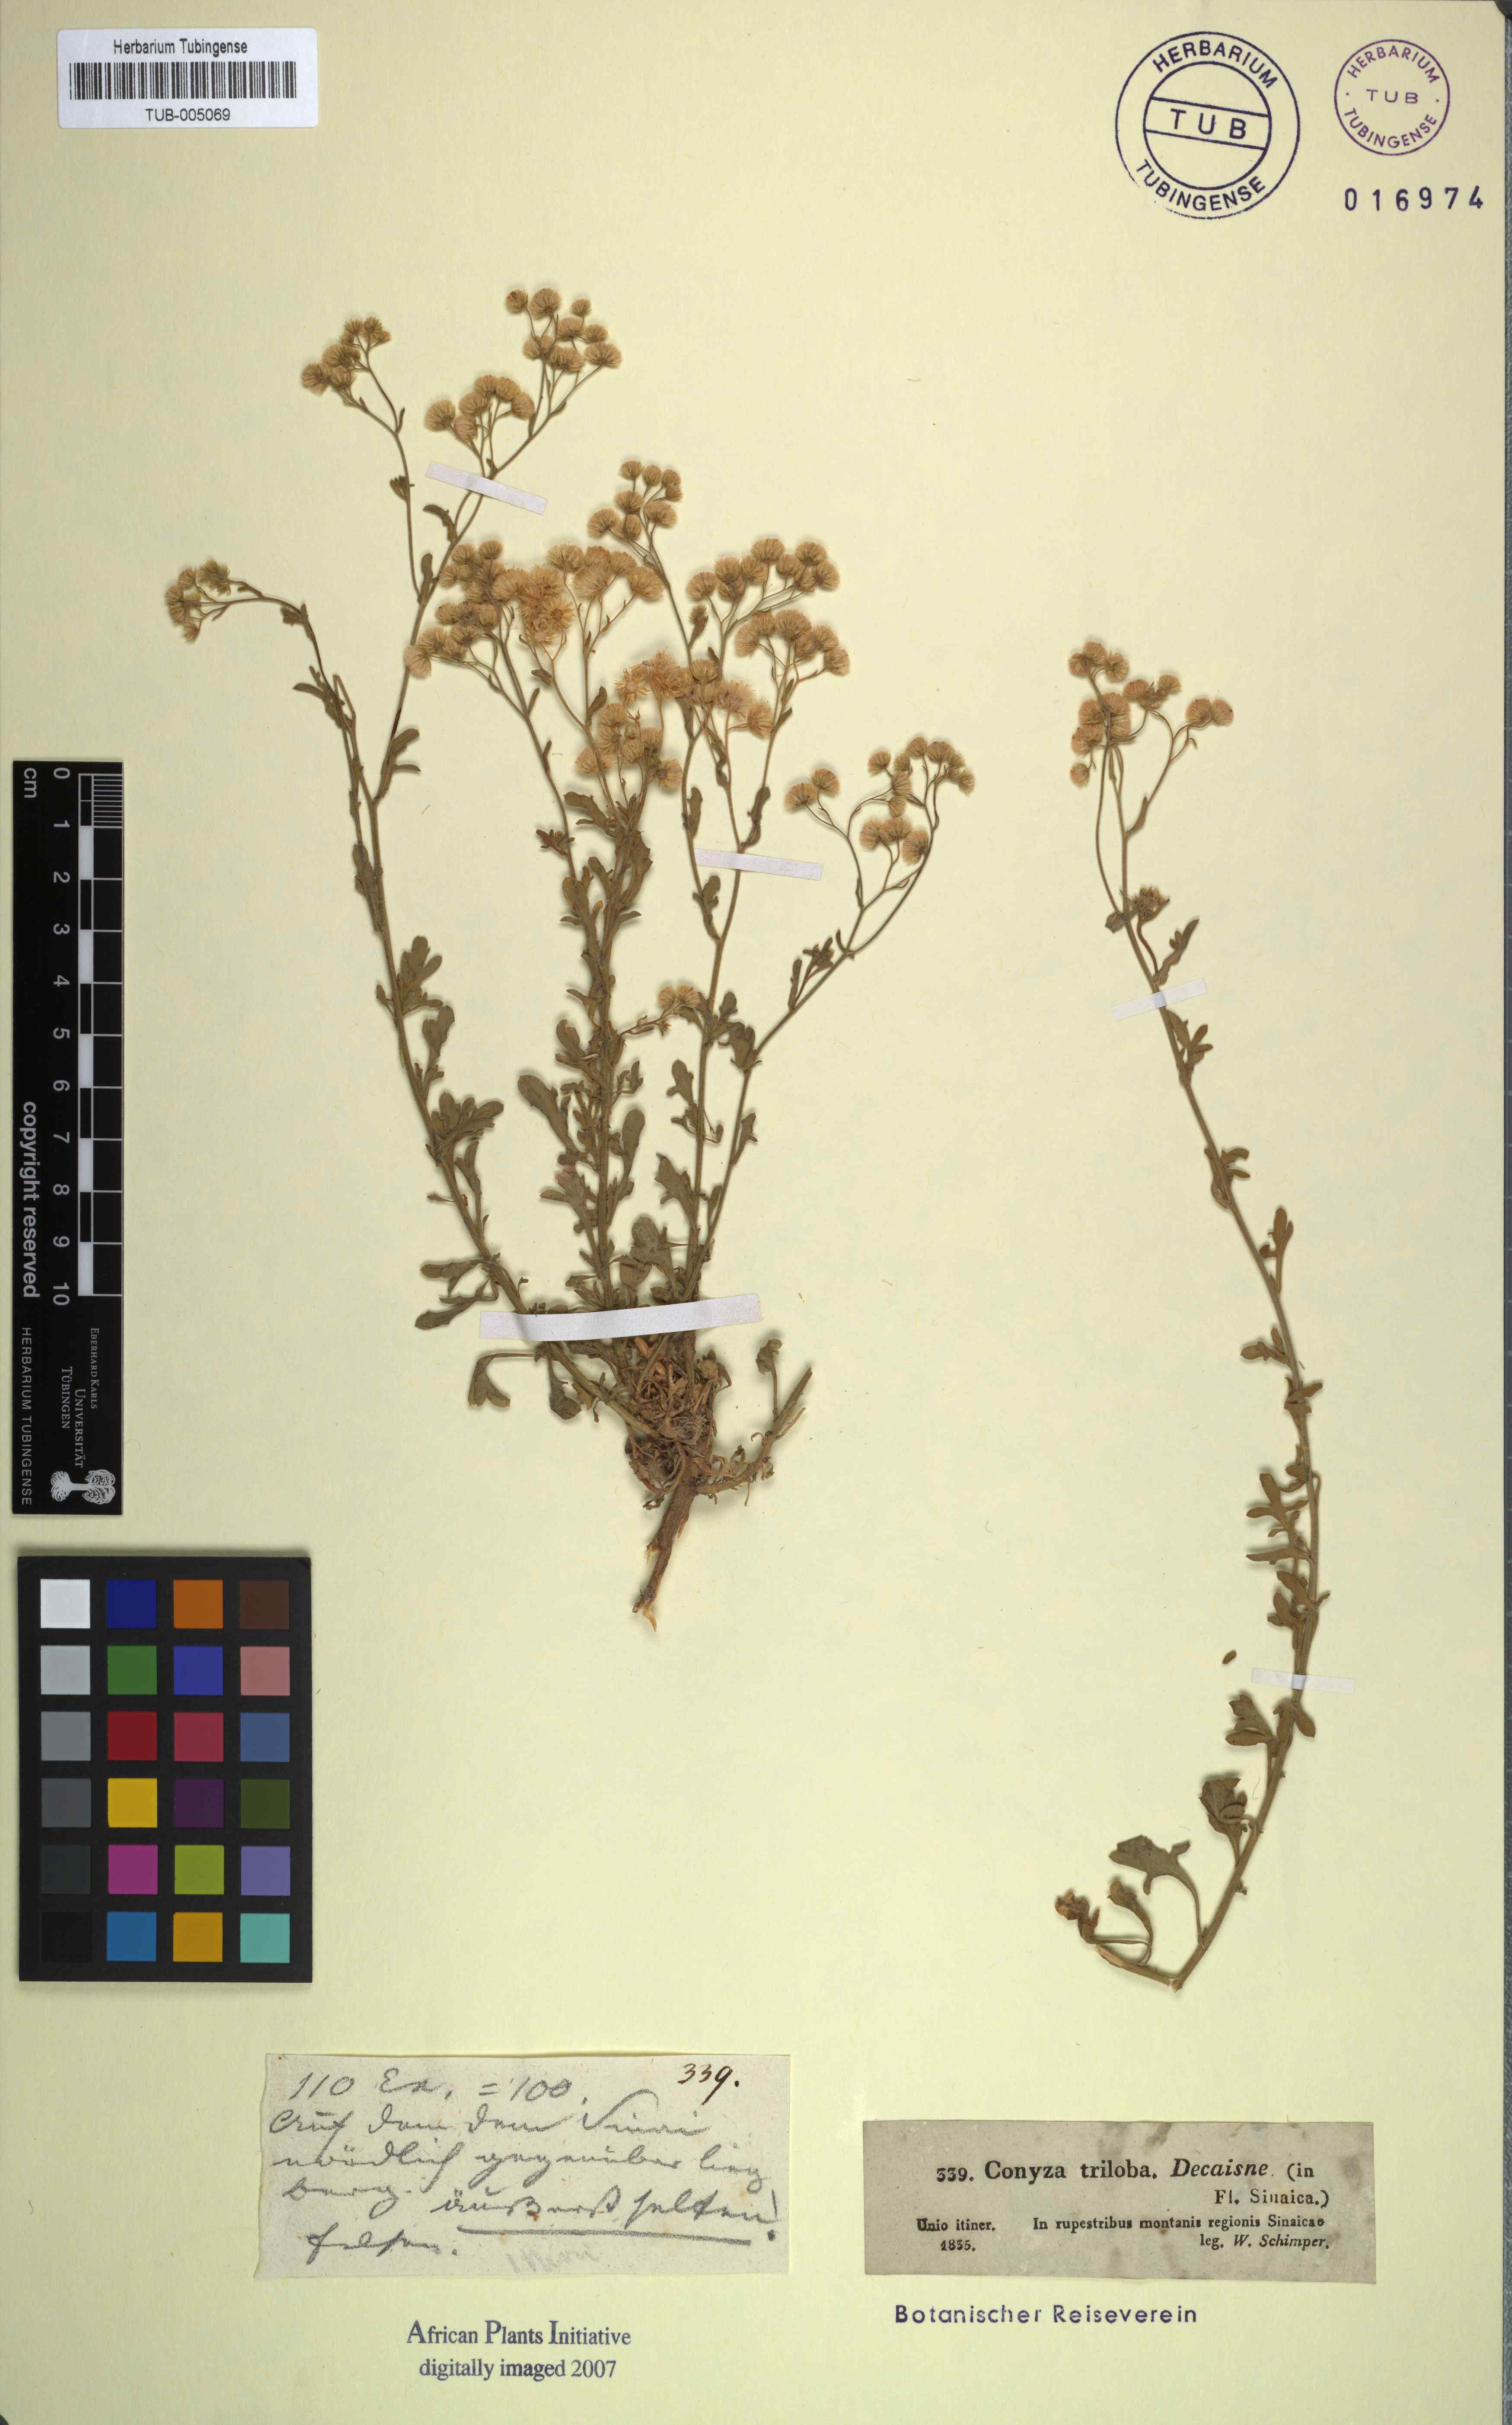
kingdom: Plantae
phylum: Tracheophyta
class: Magnoliopsida
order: Asterales
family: Asteraceae
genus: Nidorella
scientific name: Nidorella triloba
